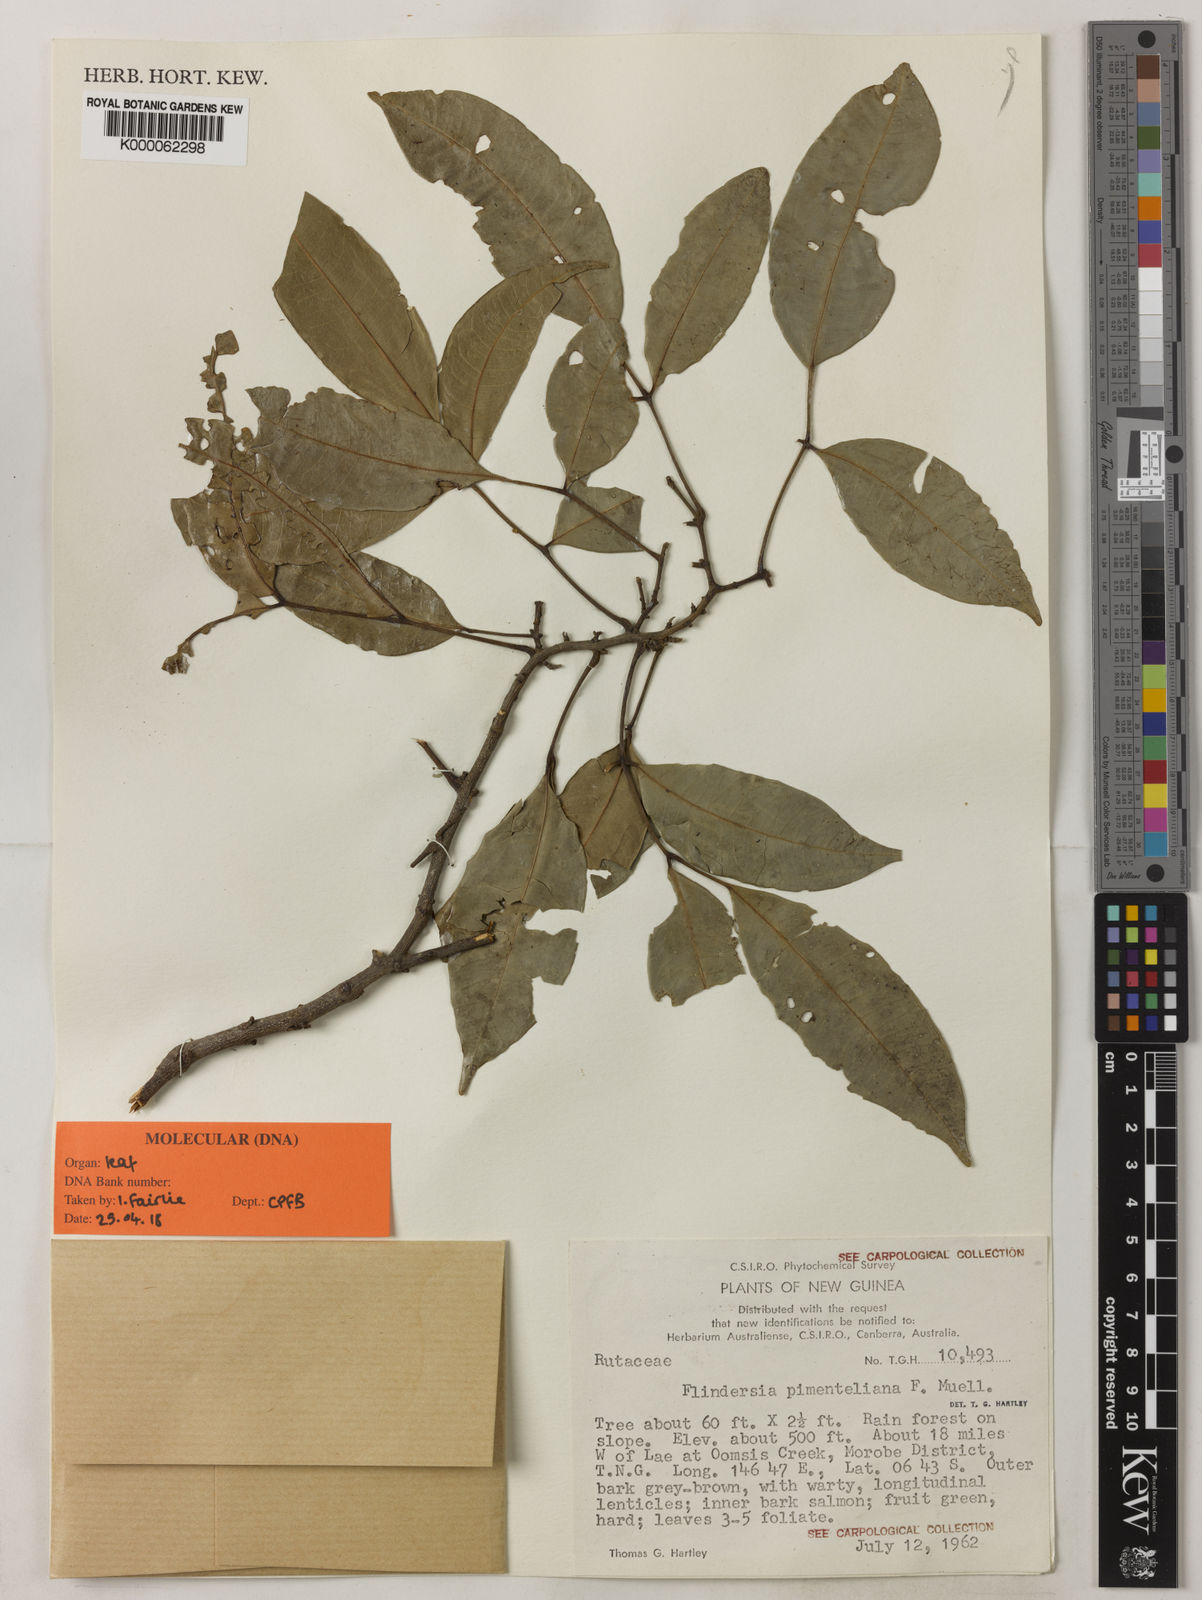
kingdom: Plantae
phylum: Tracheophyta
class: Magnoliopsida
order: Sapindales
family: Rutaceae
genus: Flindersia
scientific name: Flindersia pimenteliana
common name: Queensland-maple
